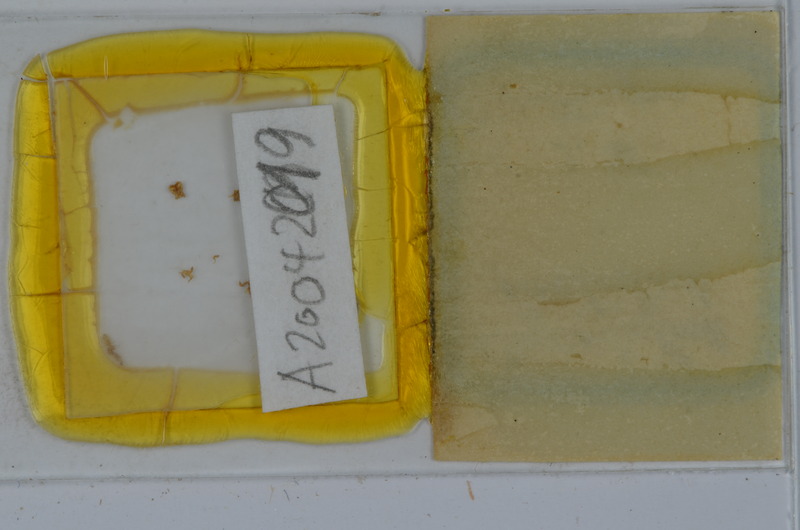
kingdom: Animalia
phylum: Arthropoda
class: Diplopoda
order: Julida
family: Julidae
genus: Unciger
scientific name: Unciger foetidus
